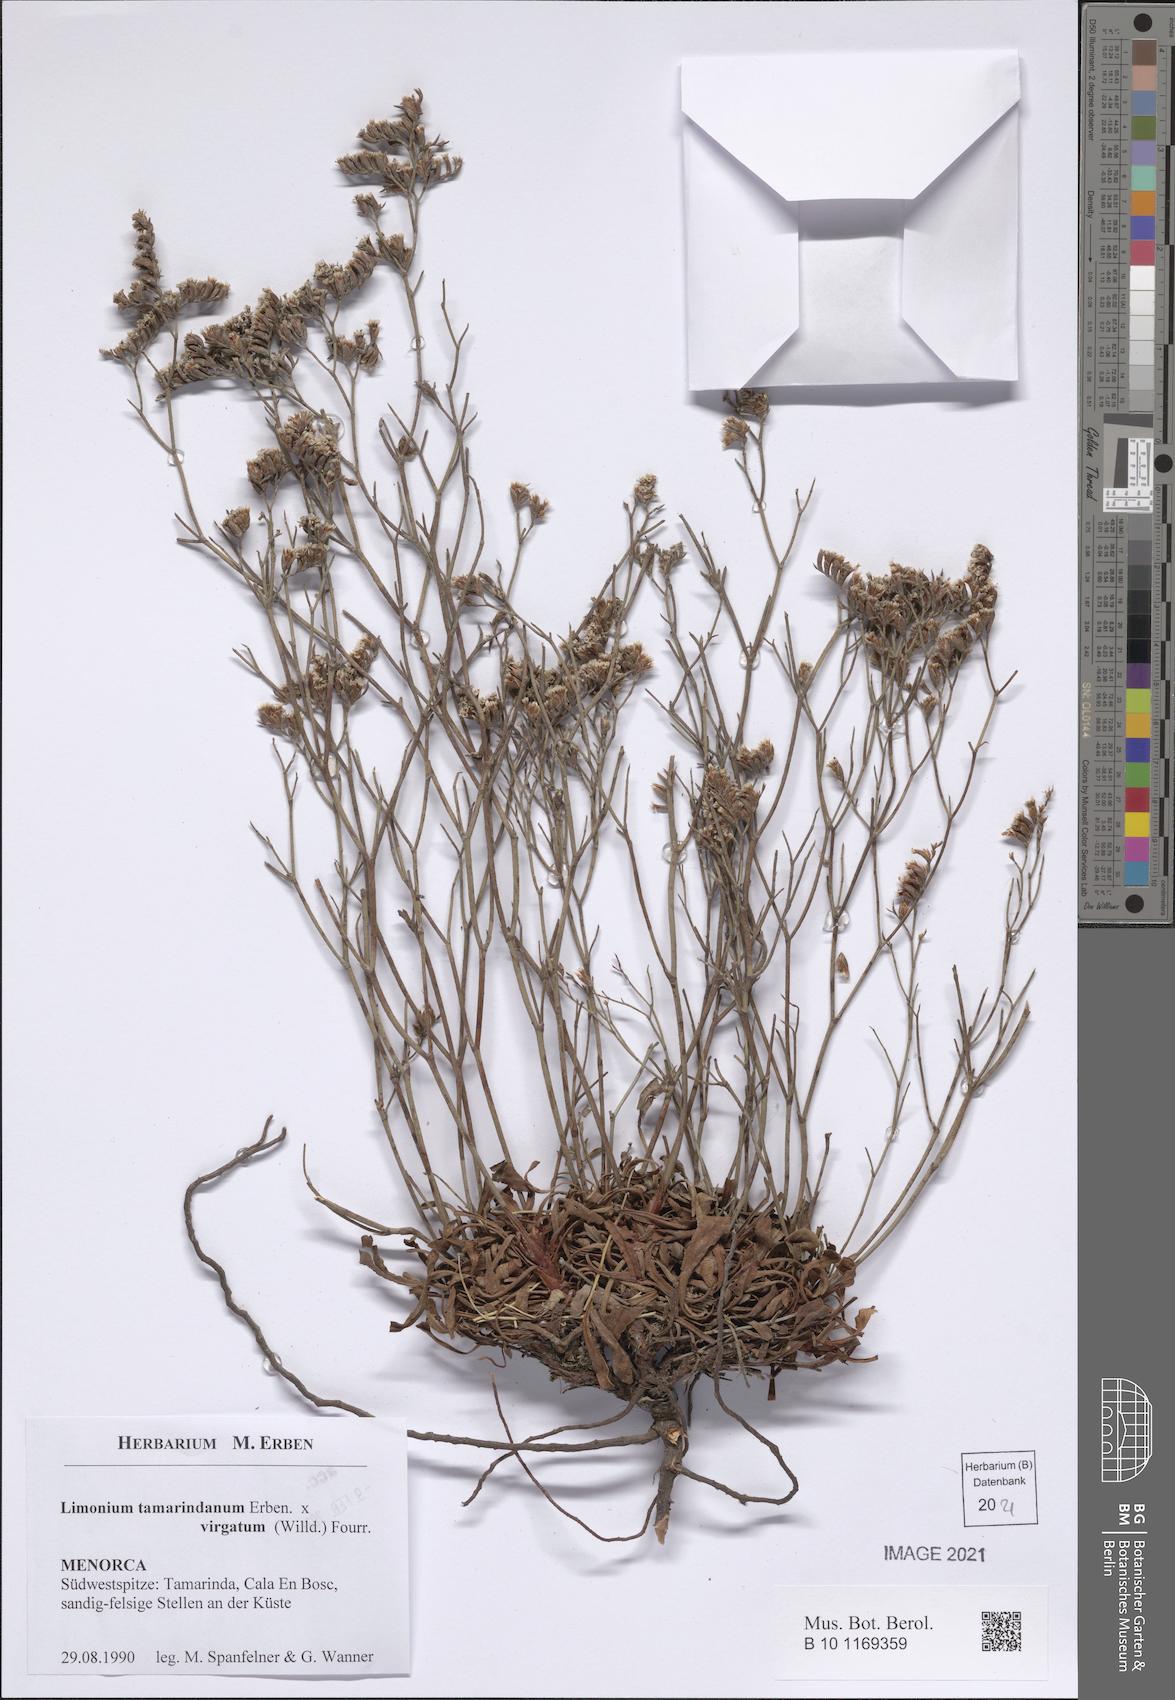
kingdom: Plantae
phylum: Tracheophyta
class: Magnoliopsida
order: Caryophyllales
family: Plumbaginaceae
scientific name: Plumbaginaceae
